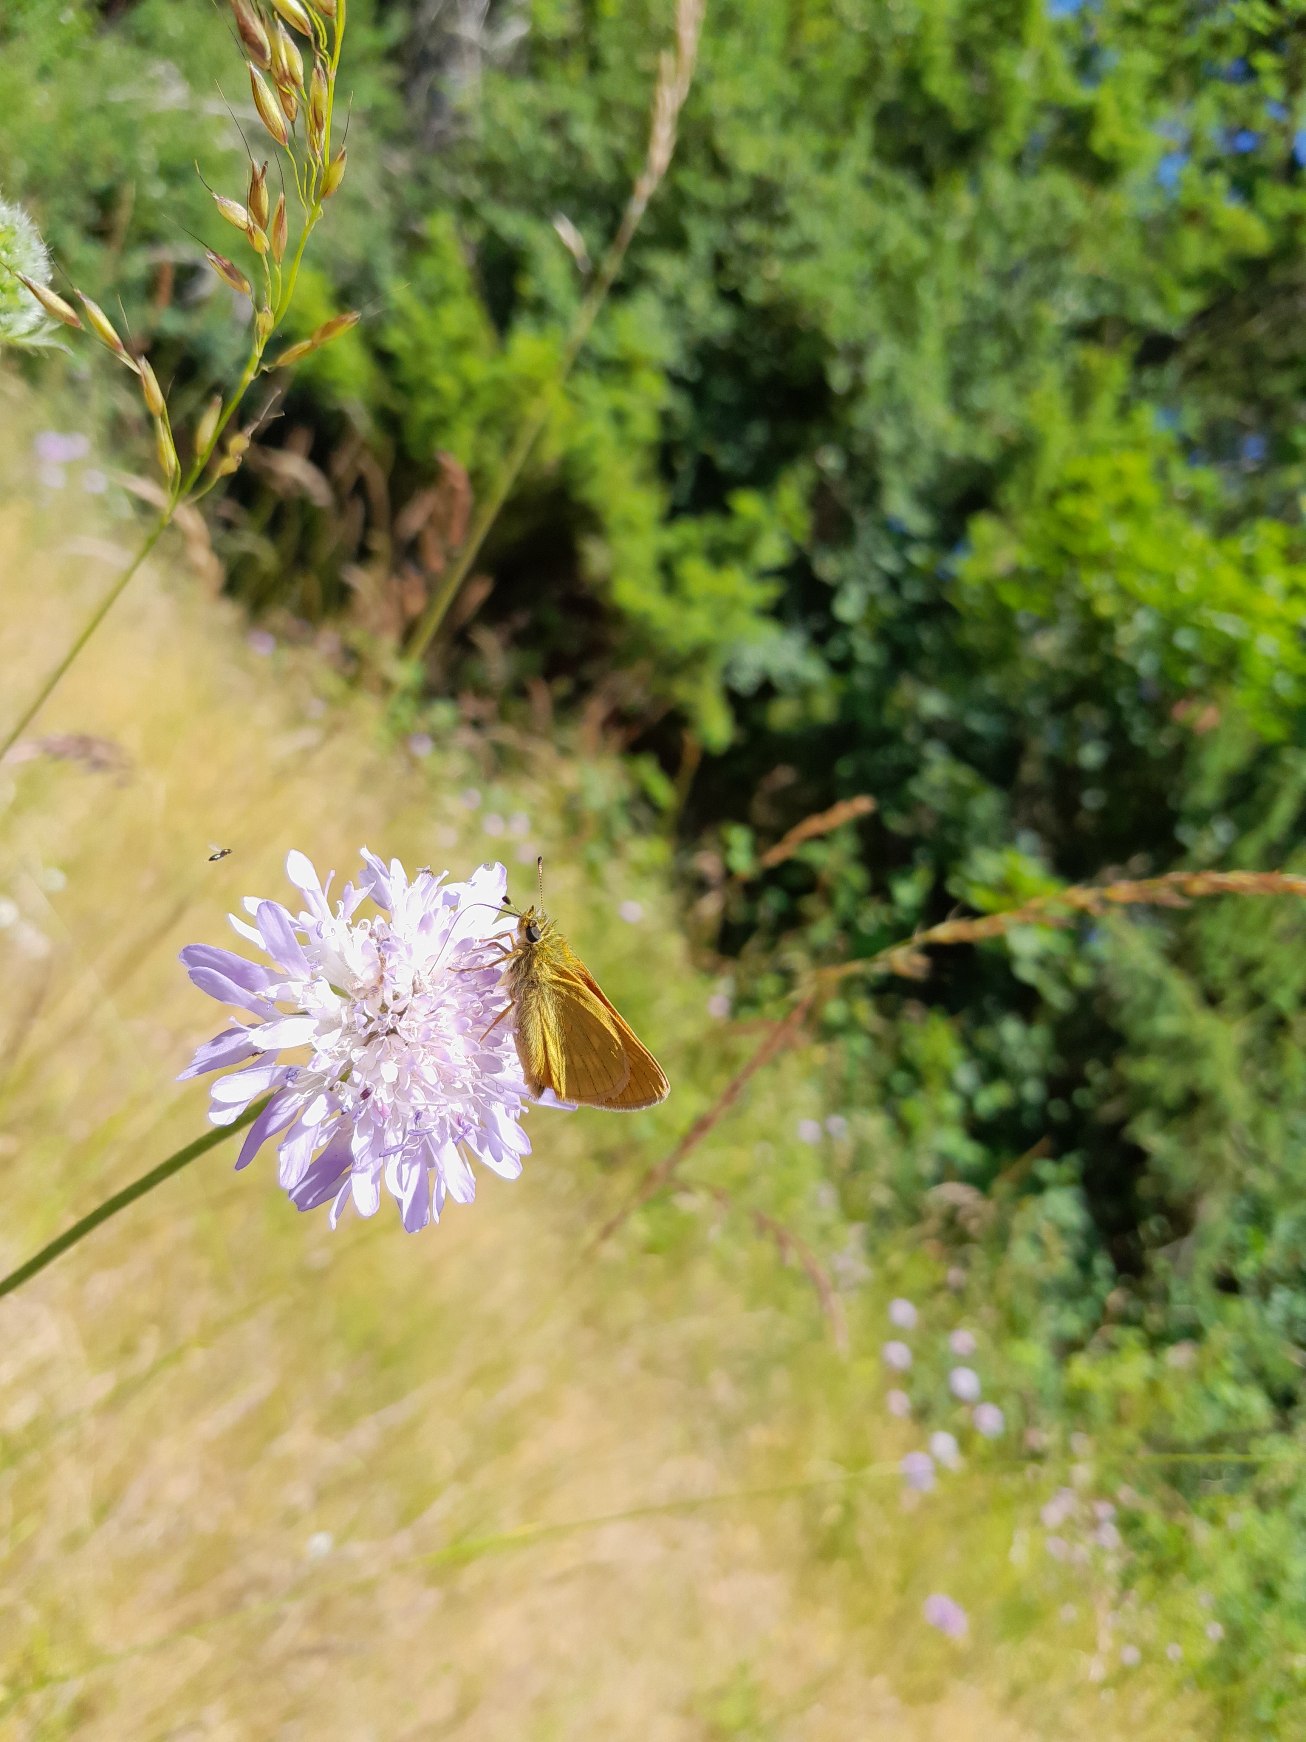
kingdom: Animalia
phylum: Arthropoda
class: Insecta
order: Lepidoptera
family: Hesperiidae
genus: Ochlodes
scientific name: Ochlodes venata
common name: Stor bredpande
